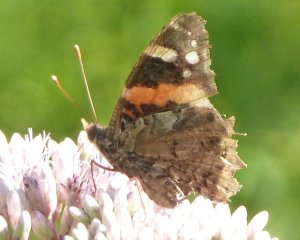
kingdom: Animalia
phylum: Arthropoda
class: Insecta
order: Lepidoptera
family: Nymphalidae
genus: Vanessa
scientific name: Vanessa atalanta
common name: Red Admiral
